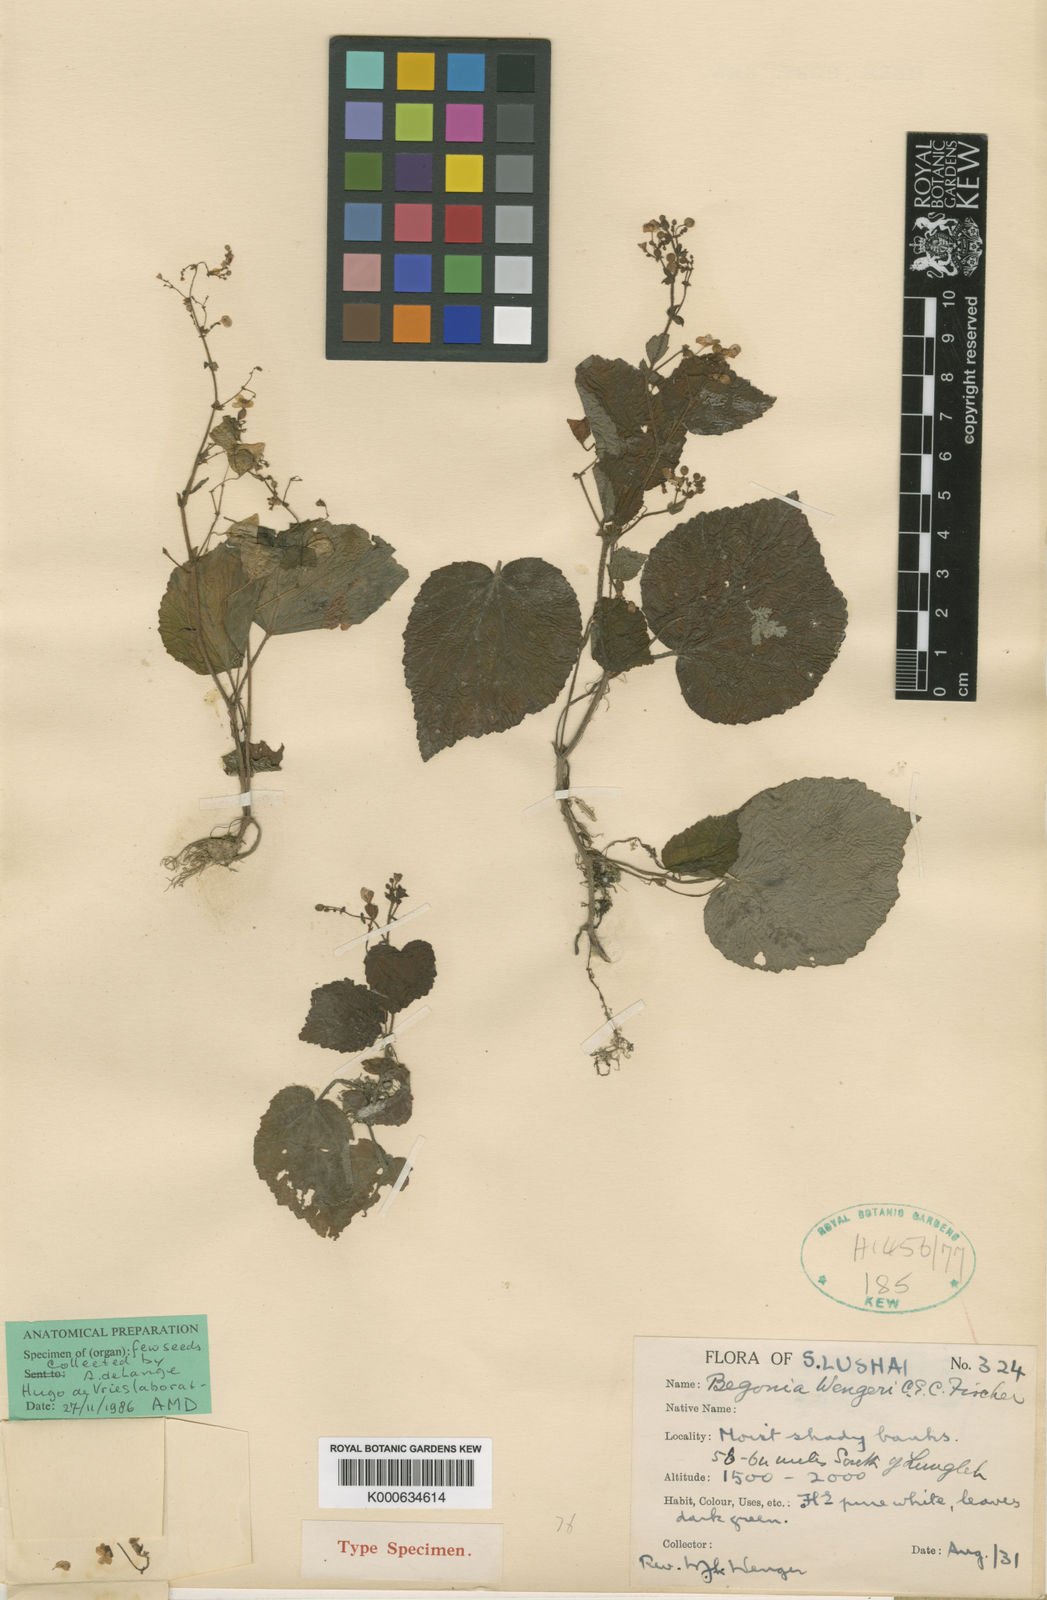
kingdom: Plantae
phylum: Tracheophyta
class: Magnoliopsida
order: Cucurbitales
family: Begoniaceae
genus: Begonia
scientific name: Begonia wengeri
